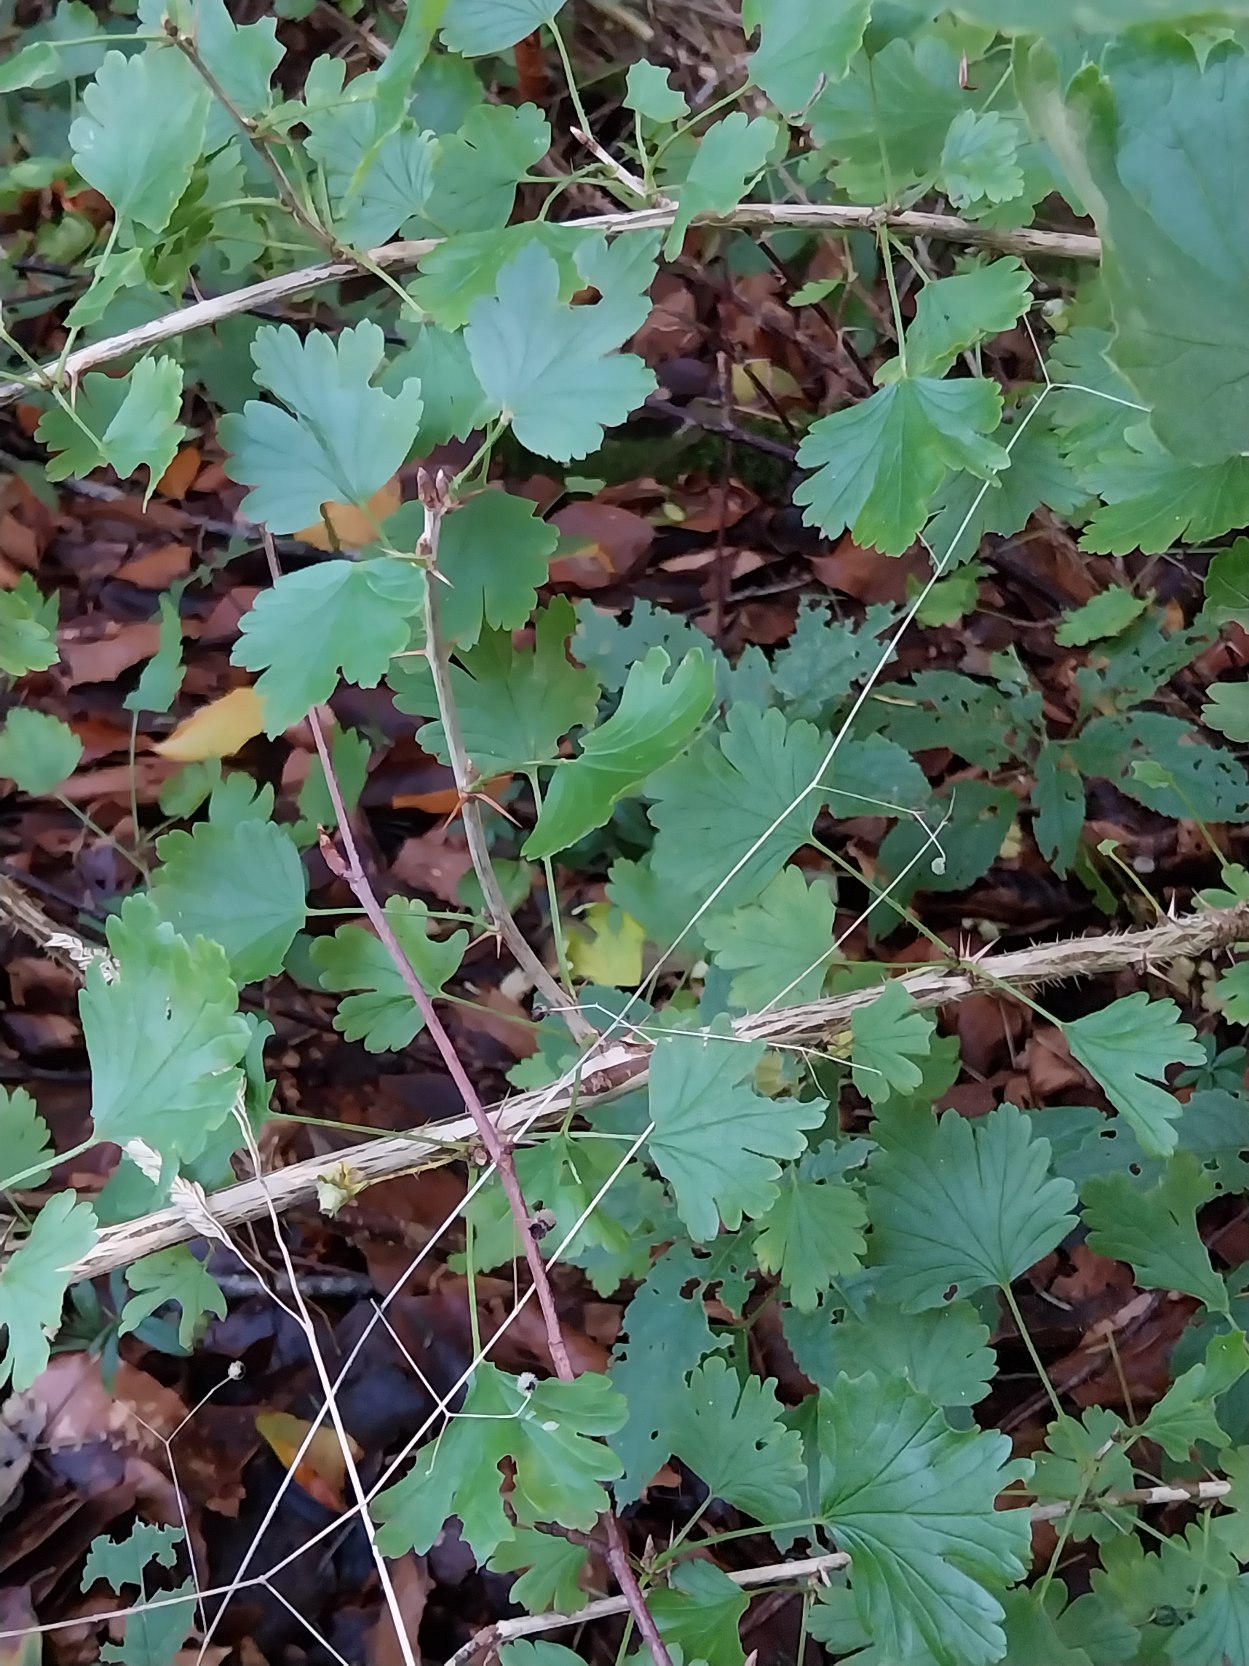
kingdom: Plantae
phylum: Tracheophyta
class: Magnoliopsida
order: Saxifragales
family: Grossulariaceae
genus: Ribes
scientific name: Ribes uva-crispa
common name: Stikkelsbær
